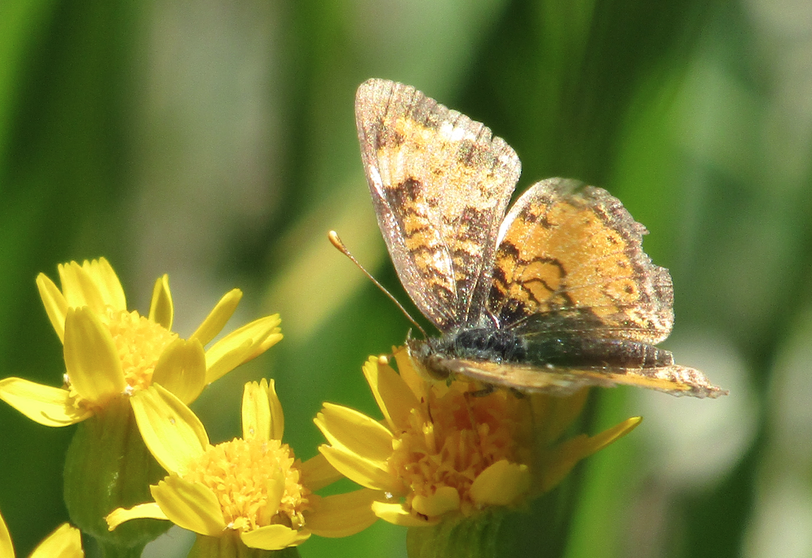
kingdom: Animalia
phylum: Arthropoda
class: Insecta
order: Lepidoptera
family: Nymphalidae
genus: Phyciodes
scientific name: Phyciodes tharos
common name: Northern Crescent
